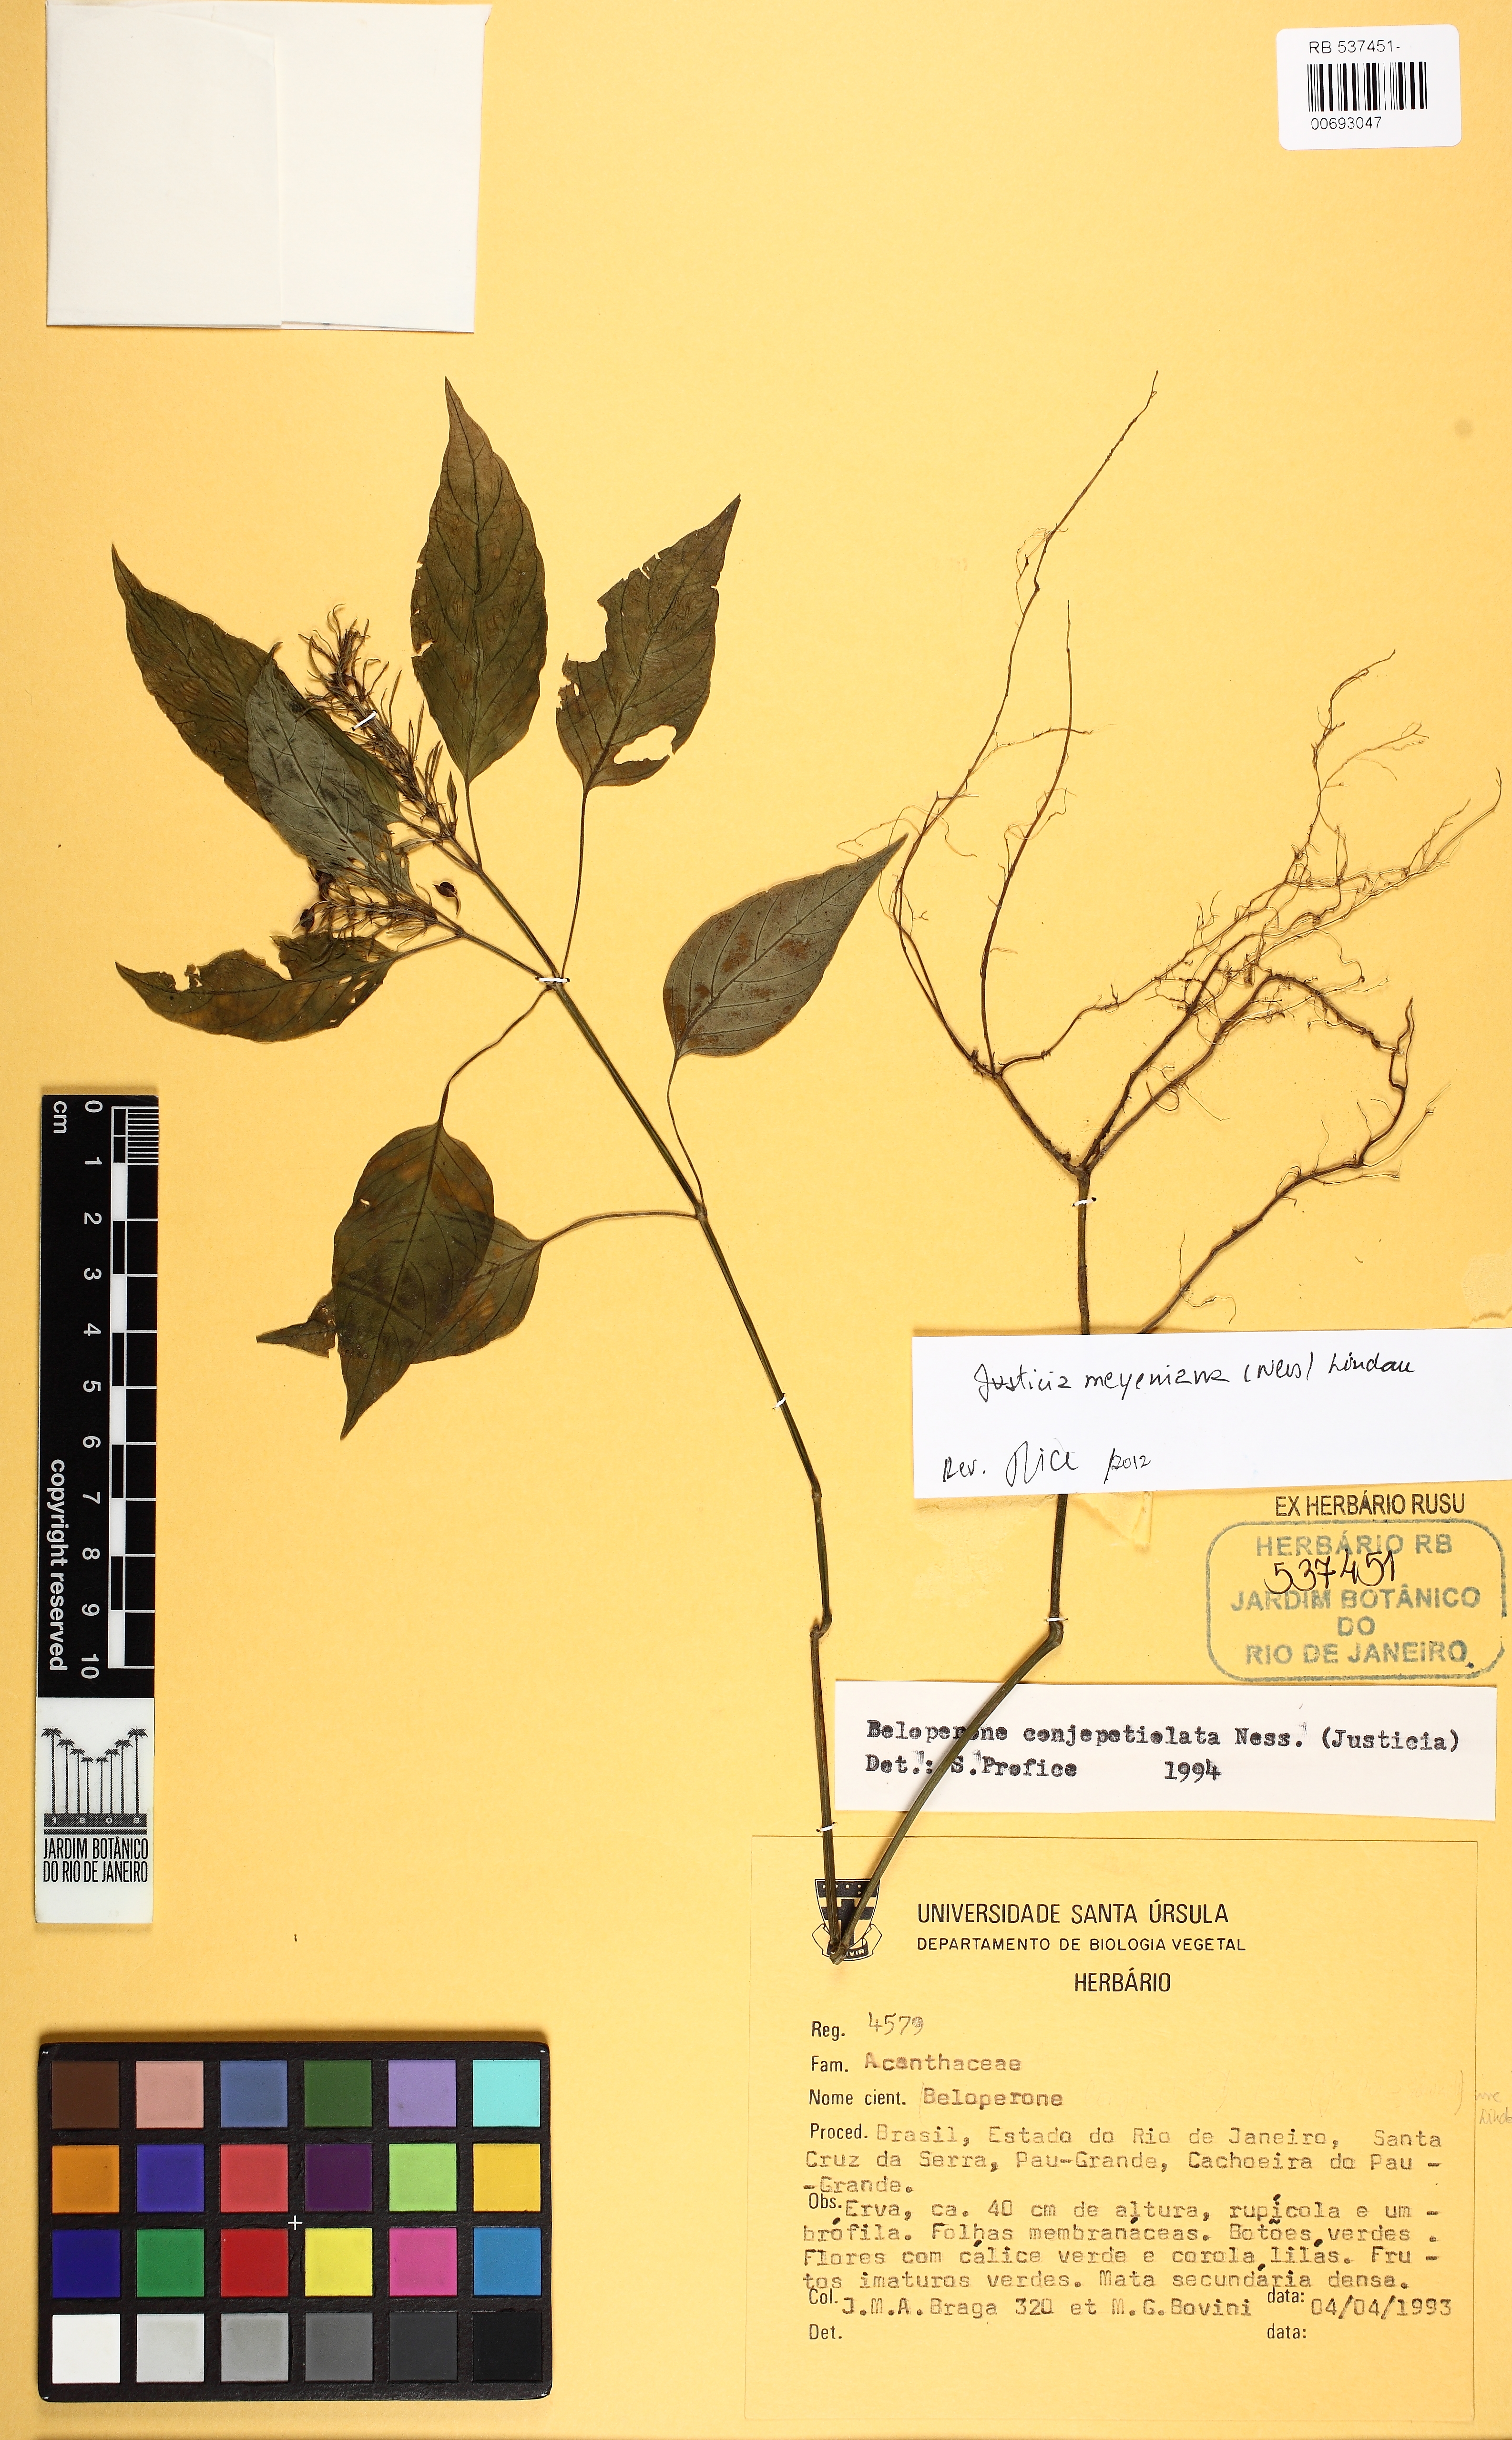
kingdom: Plantae
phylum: Tracheophyta
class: Magnoliopsida
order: Lamiales
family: Acanthaceae
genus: Justicia
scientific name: Justicia meyeniana
